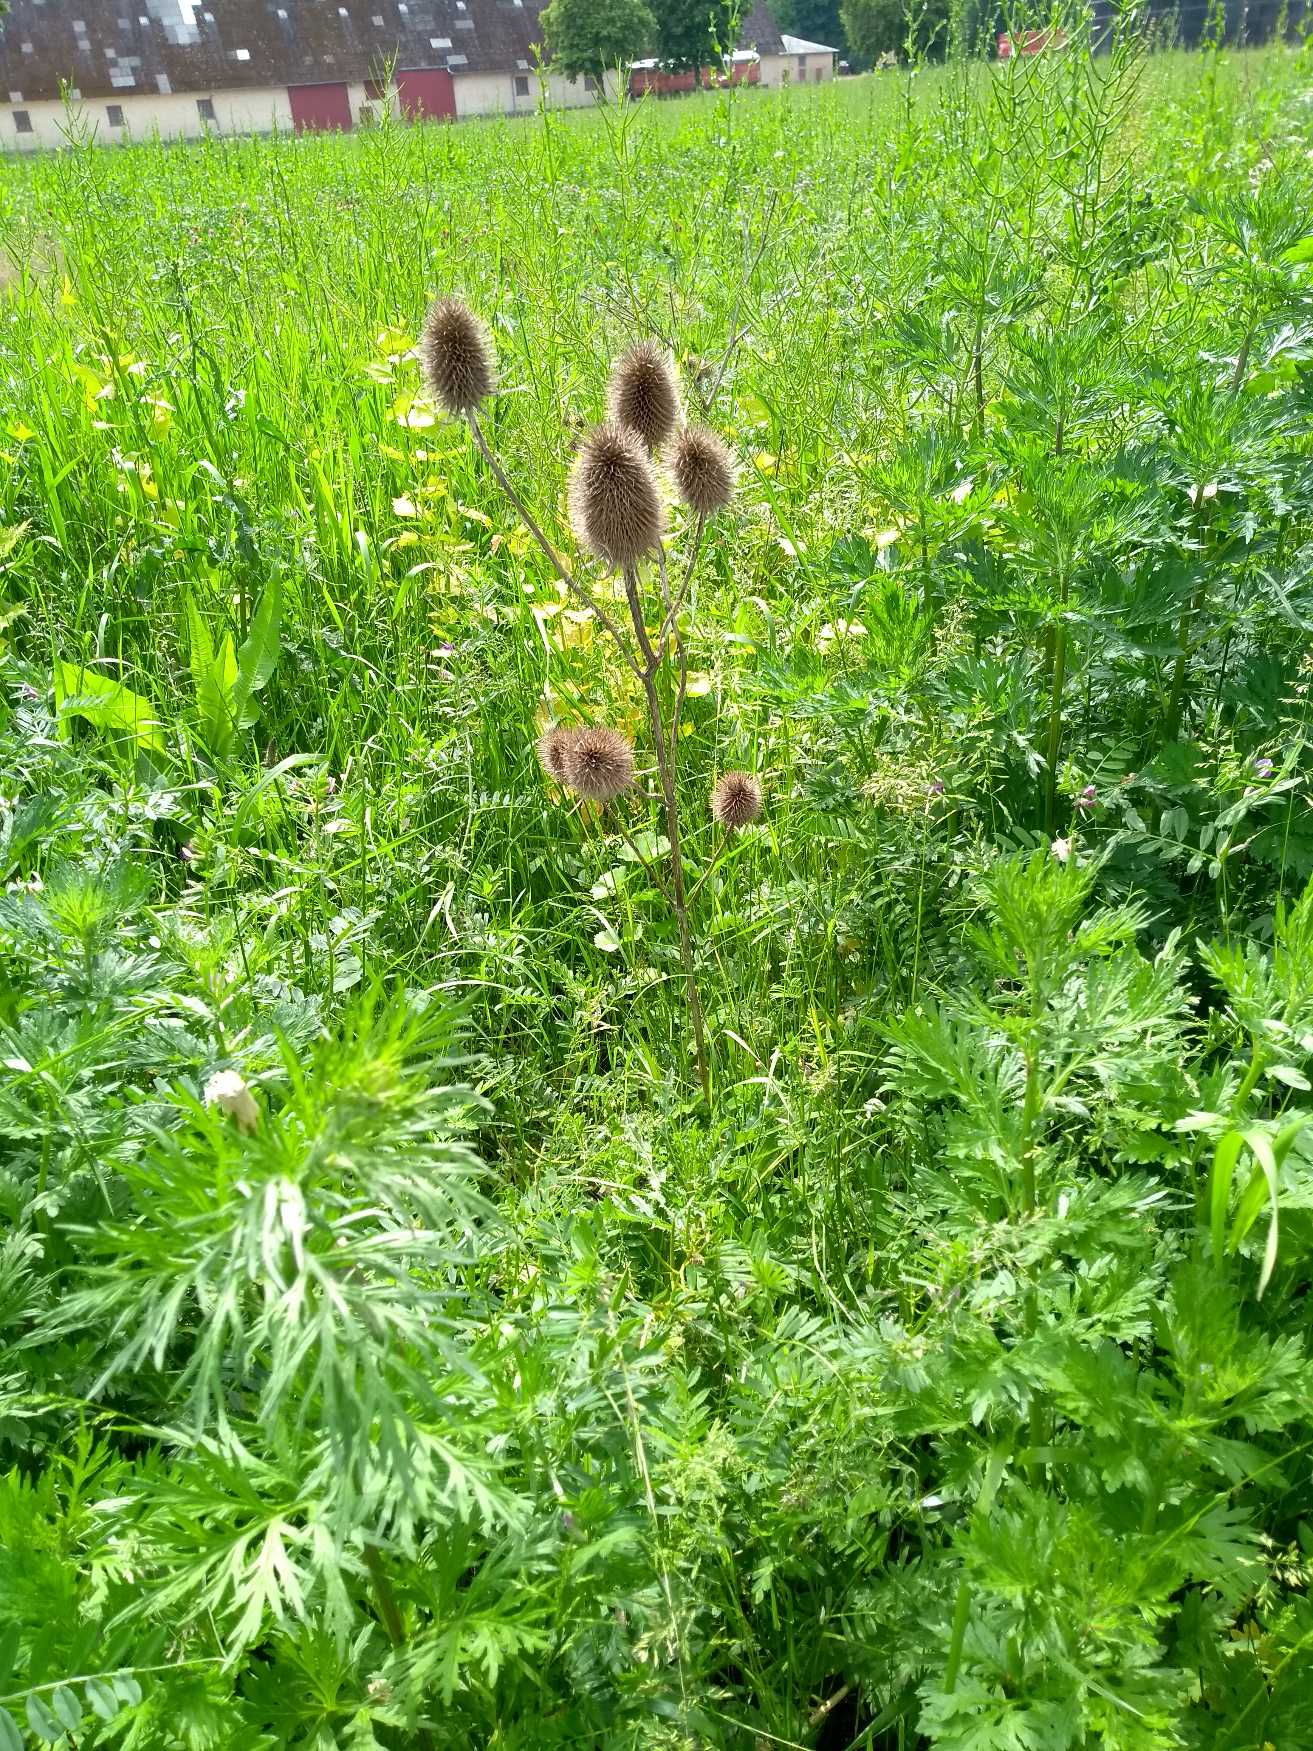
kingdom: Plantae
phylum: Tracheophyta
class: Magnoliopsida
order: Dipsacales
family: Caprifoliaceae
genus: Dipsacus
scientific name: Dipsacus fullonum
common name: Gærde-kartebolle
